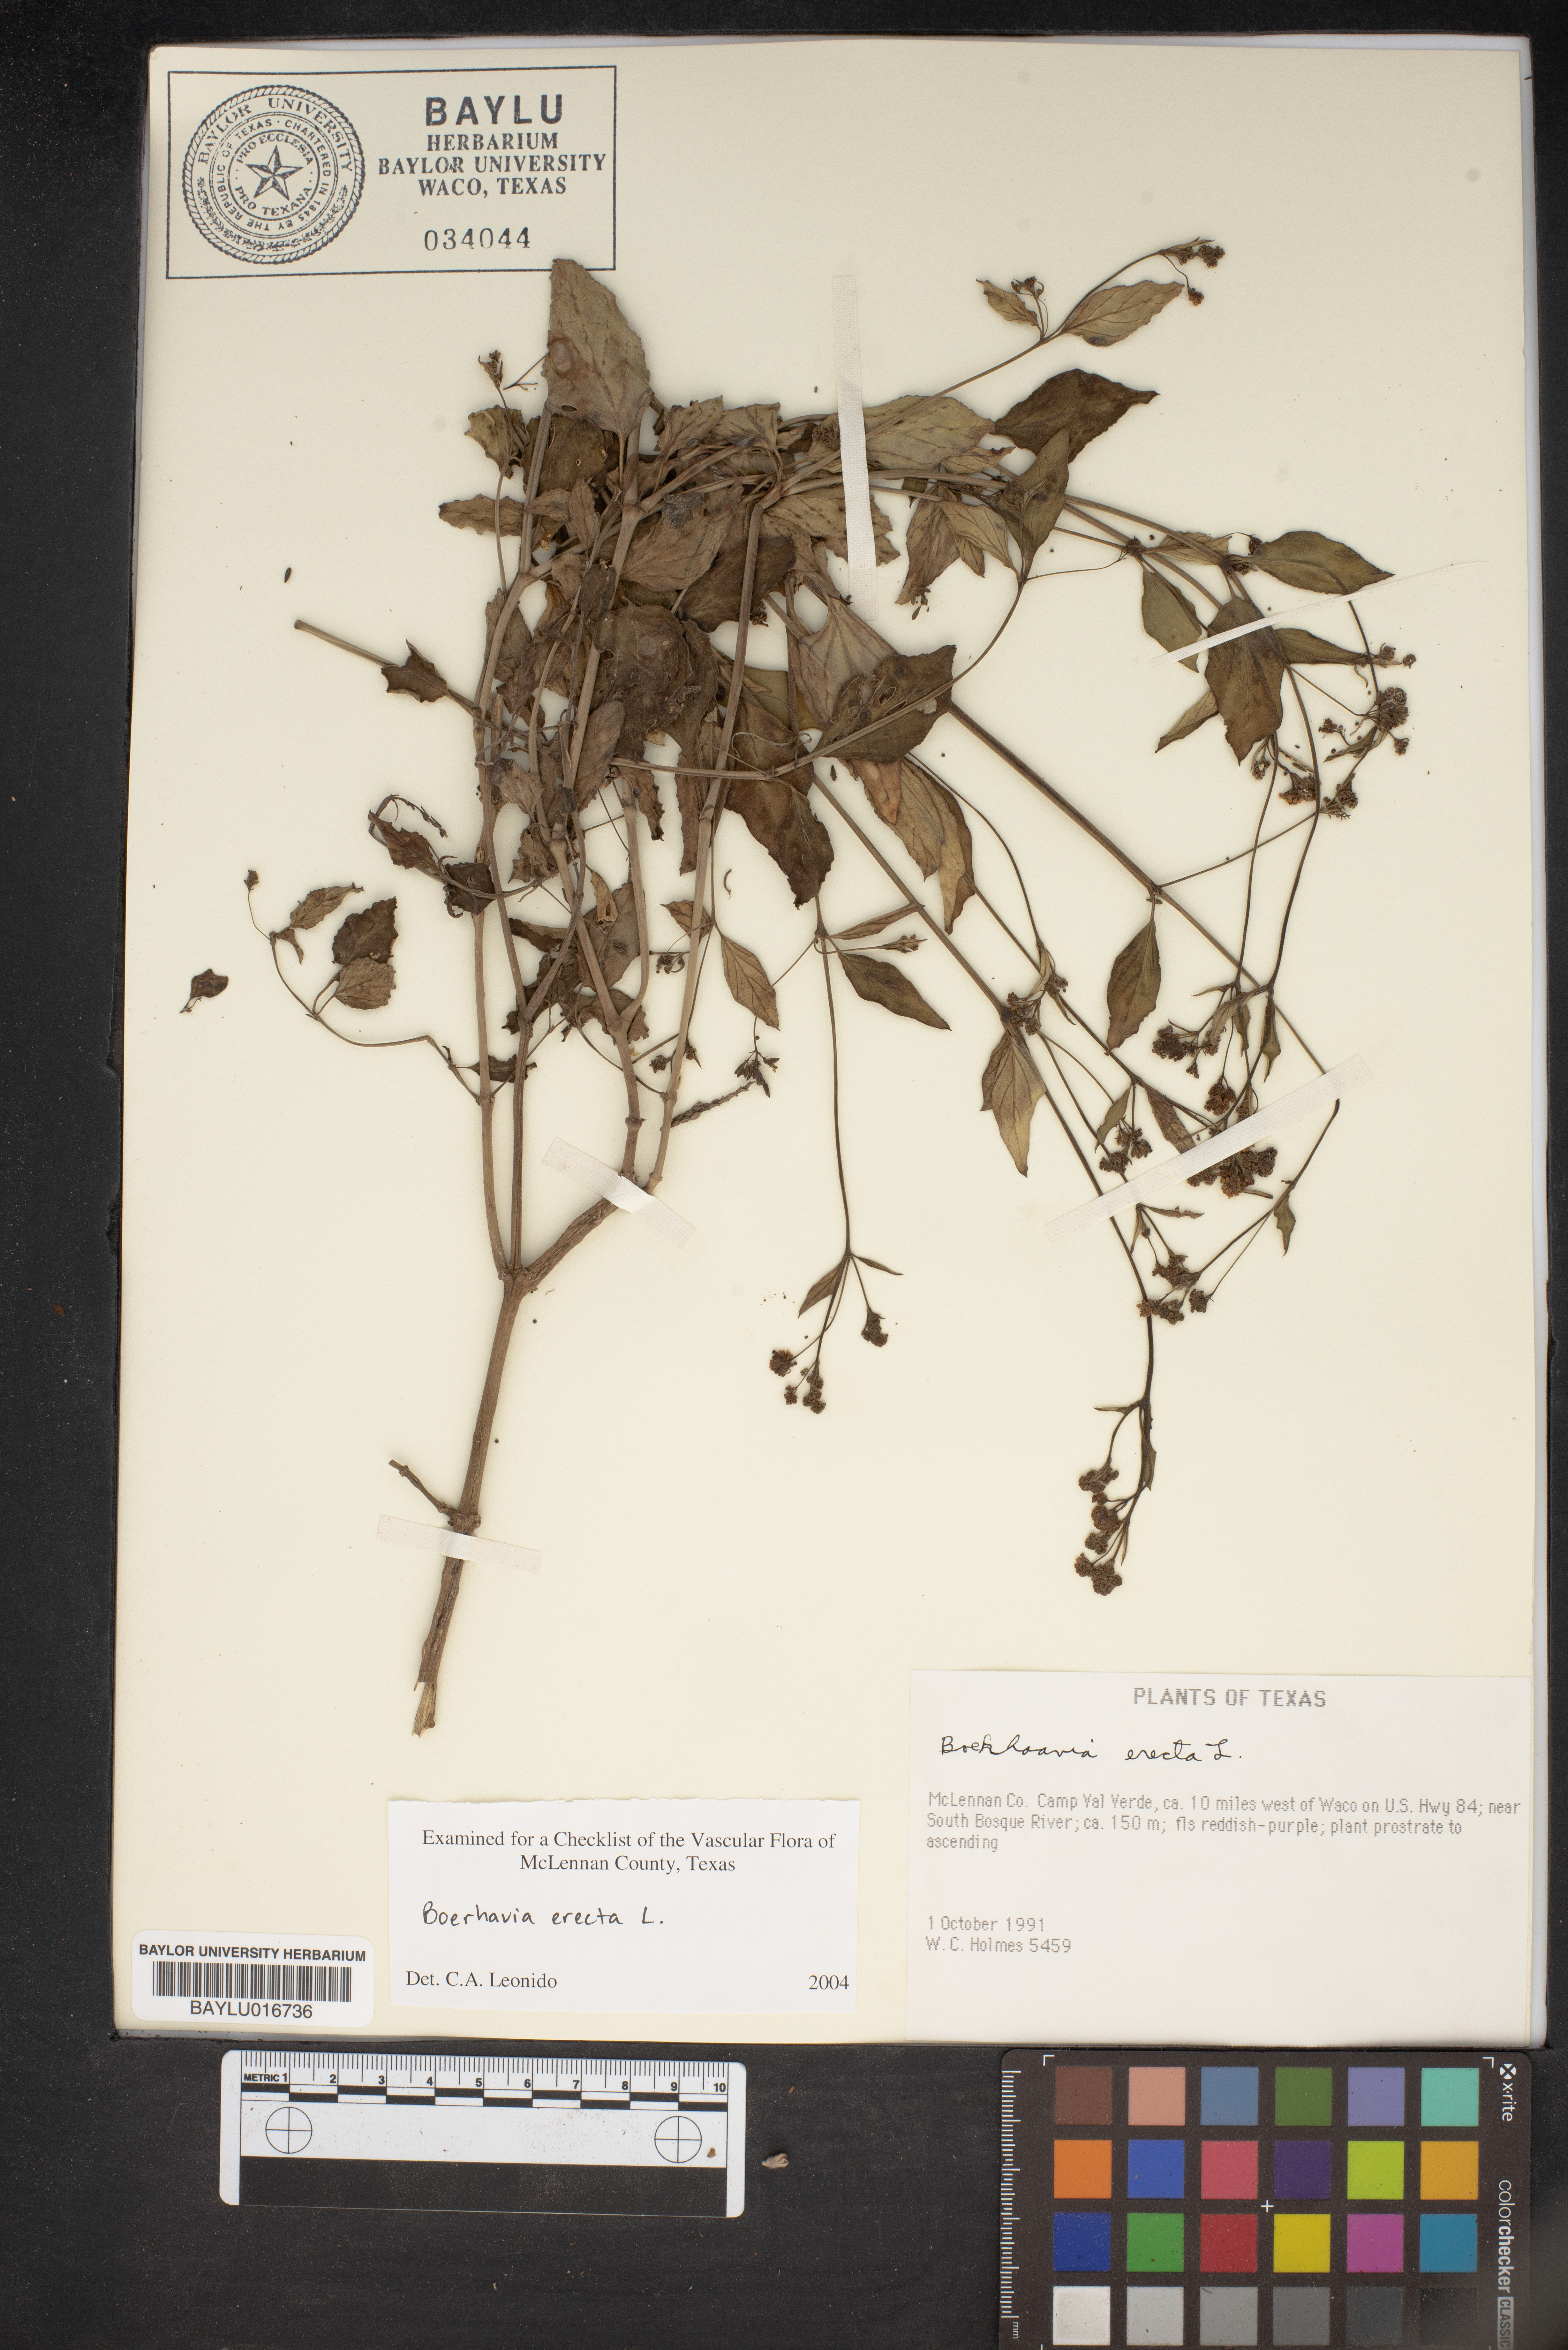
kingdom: Plantae
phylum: Tracheophyta
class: Magnoliopsida
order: Caryophyllales
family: Nyctaginaceae
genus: Boerhavia
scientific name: Boerhavia erecta
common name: Erect spiderling
